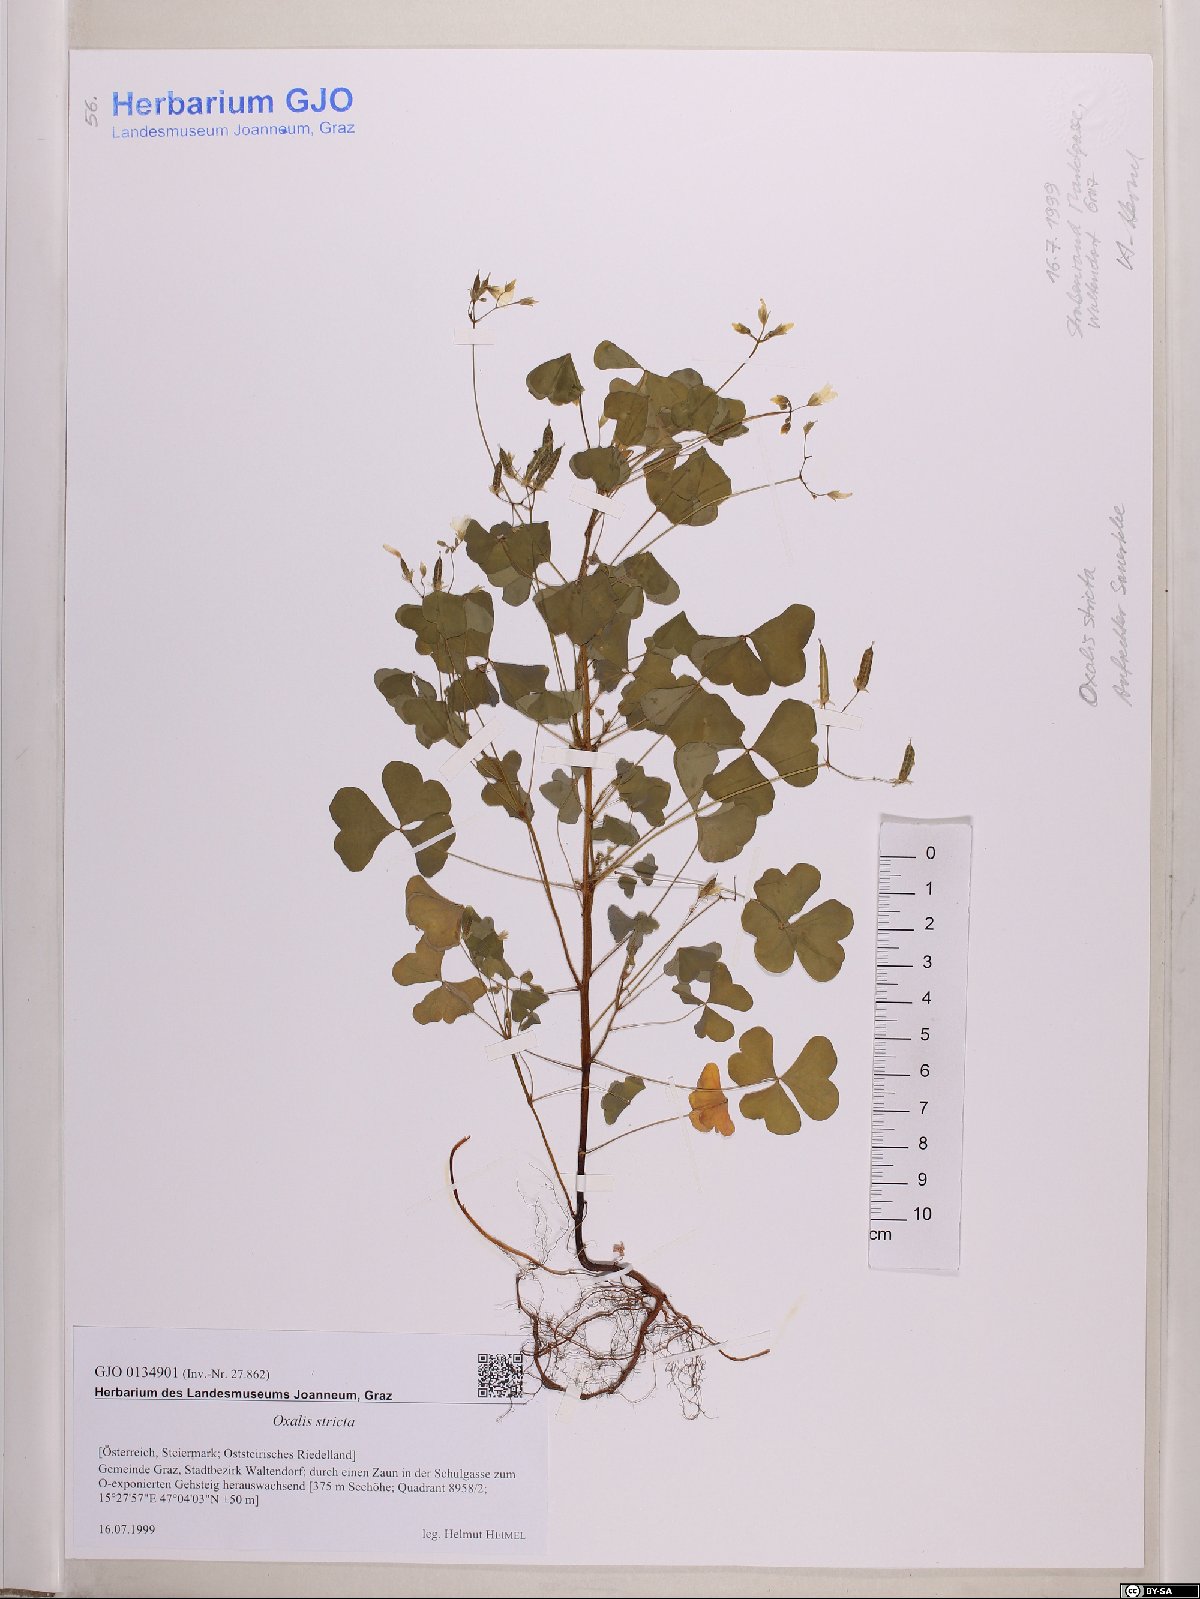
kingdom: Plantae
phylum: Tracheophyta
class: Magnoliopsida
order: Oxalidales
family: Oxalidaceae
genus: Oxalis
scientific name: Oxalis stricta
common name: Upright yellow-sorrel
